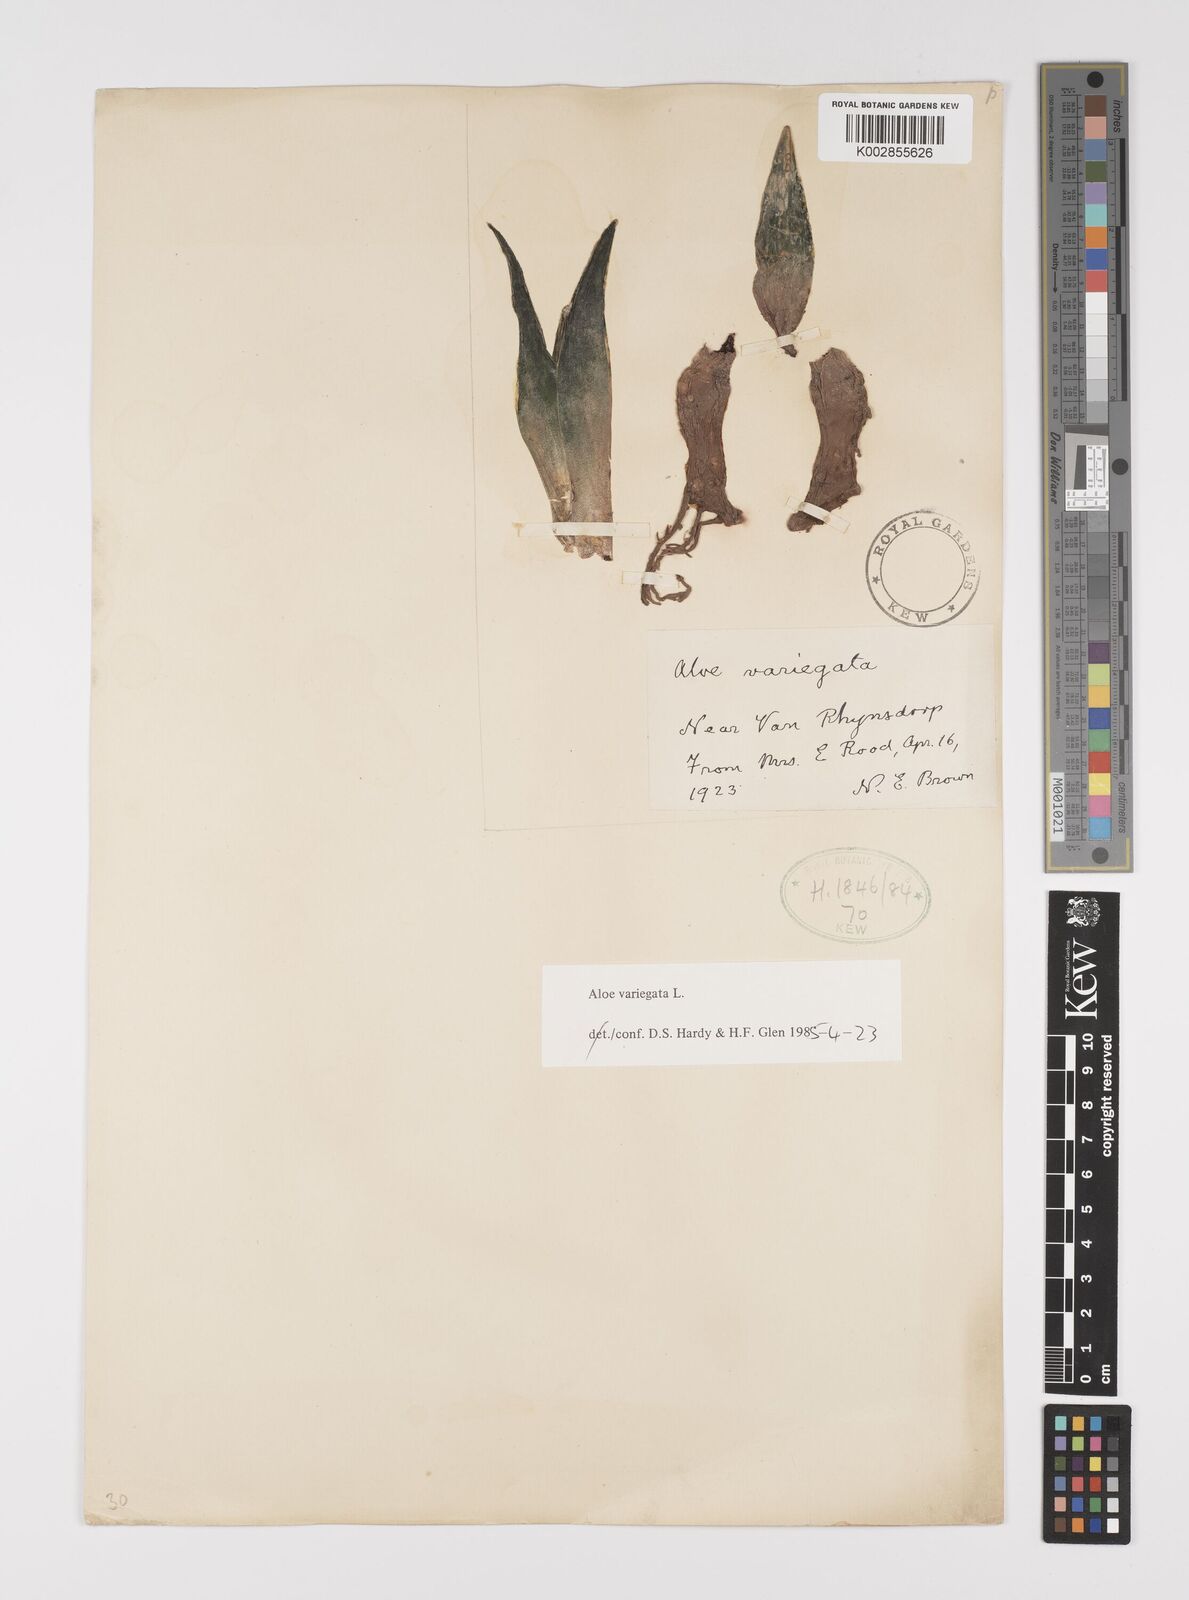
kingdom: Plantae
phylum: Tracheophyta
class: Liliopsida
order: Asparagales
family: Asphodelaceae
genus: Gonialoe
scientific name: Gonialoe variegata
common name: Aloe variegata
